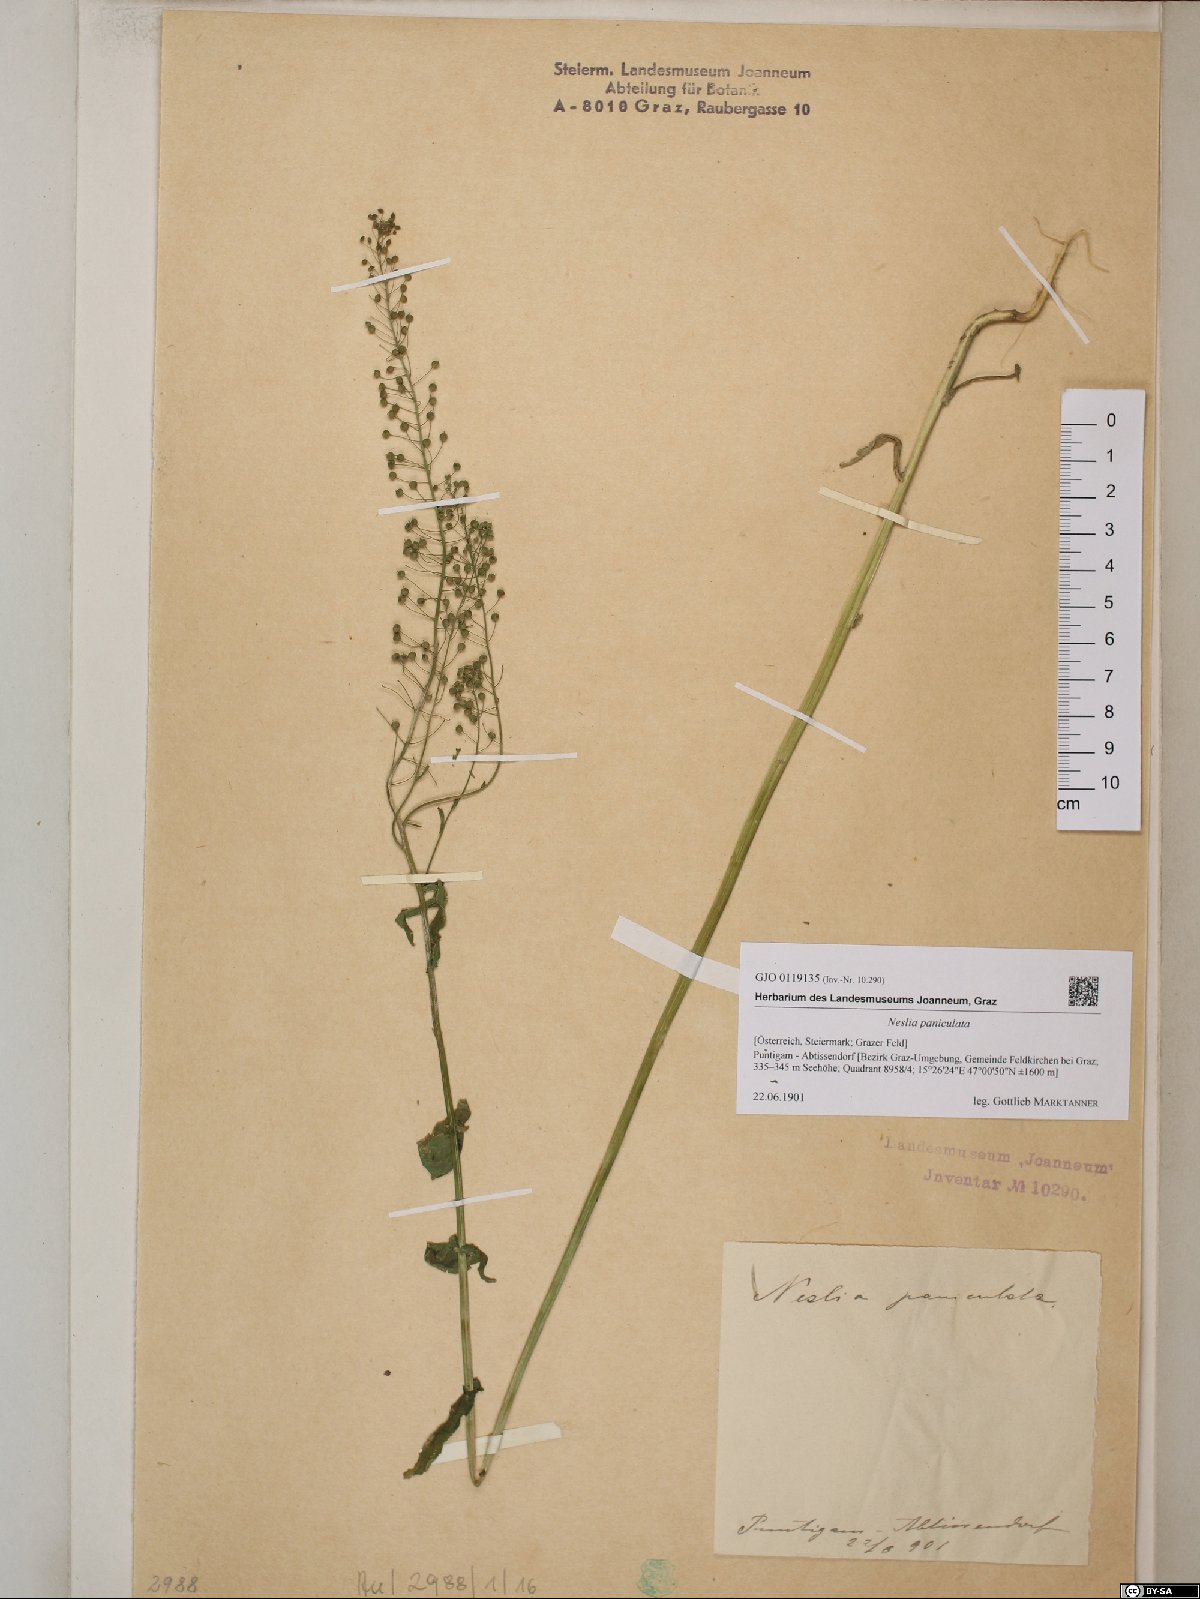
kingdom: Plantae
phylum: Tracheophyta
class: Magnoliopsida
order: Brassicales
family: Brassicaceae
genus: Neslia
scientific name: Neslia paniculata
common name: Ball mustard
